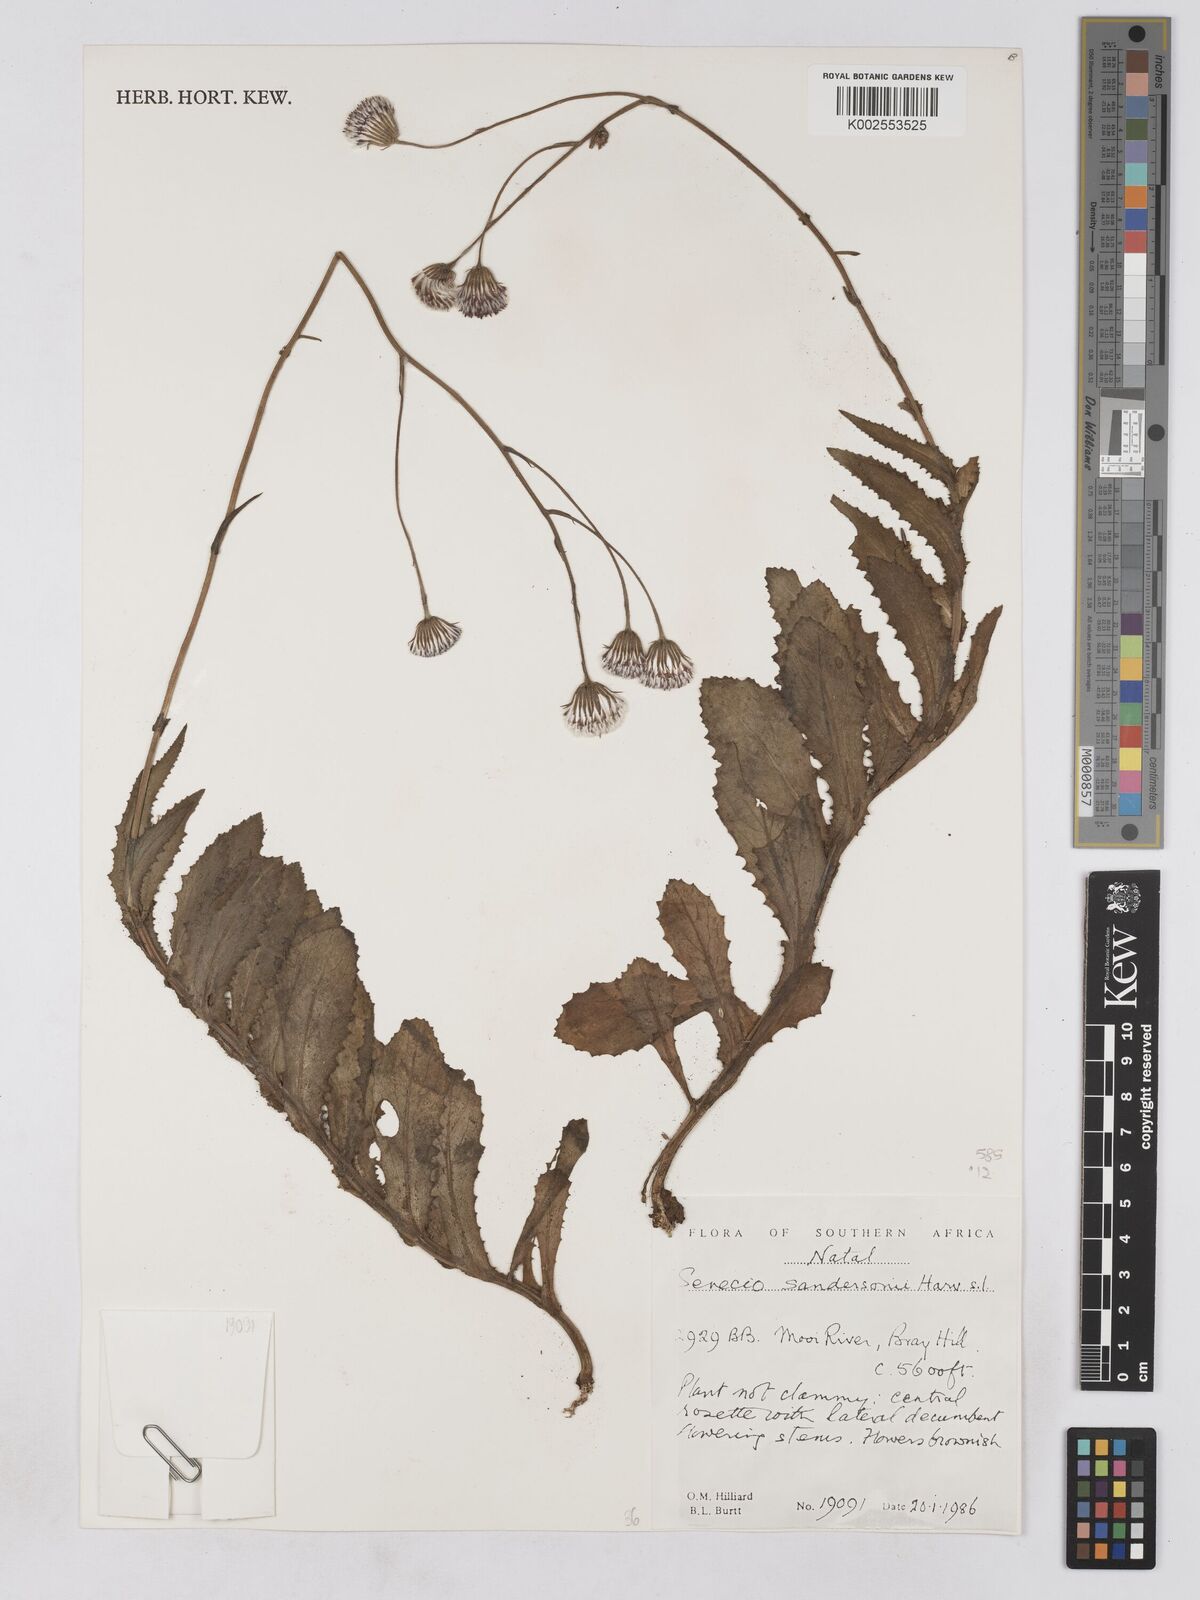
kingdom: Plantae
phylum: Tracheophyta
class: Magnoliopsida
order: Asterales
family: Asteraceae
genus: Senecio
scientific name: Senecio sandersonii
